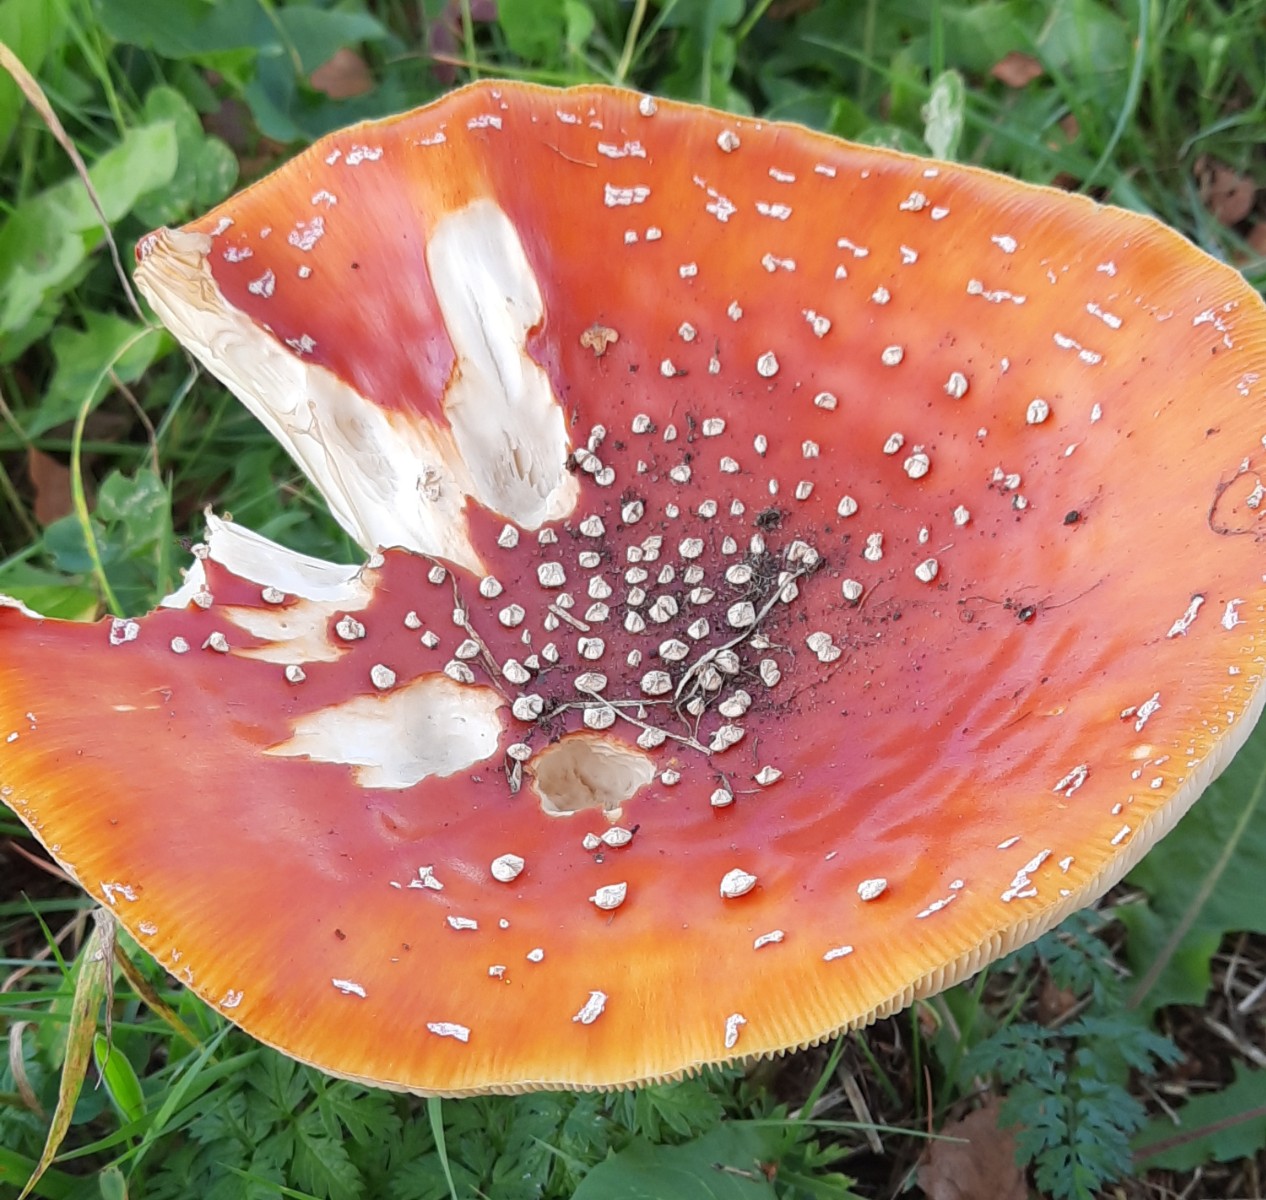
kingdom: Fungi
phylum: Basidiomycota
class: Agaricomycetes
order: Agaricales
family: Amanitaceae
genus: Amanita
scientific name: Amanita muscaria
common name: rød fluesvamp
